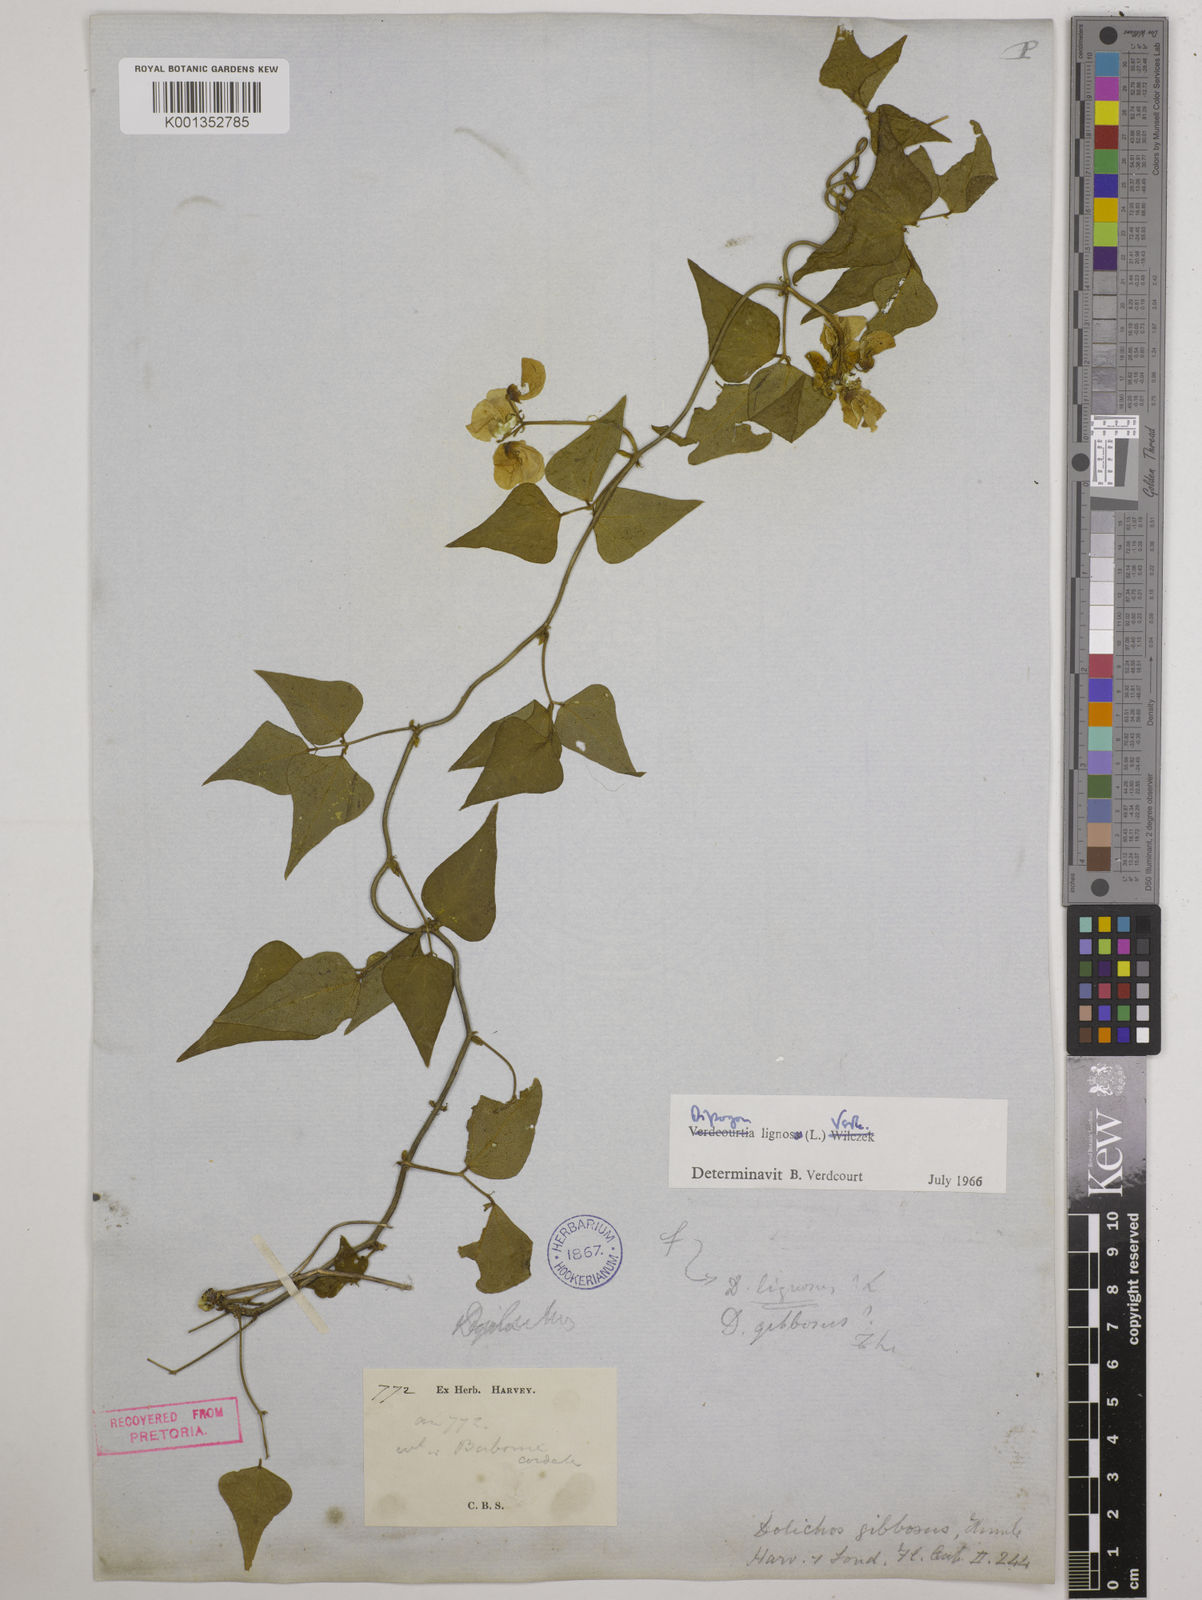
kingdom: Plantae
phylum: Tracheophyta
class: Magnoliopsida
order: Fabales
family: Fabaceae
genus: Dipogon
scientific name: Dipogon lignosus
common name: Okie bean
